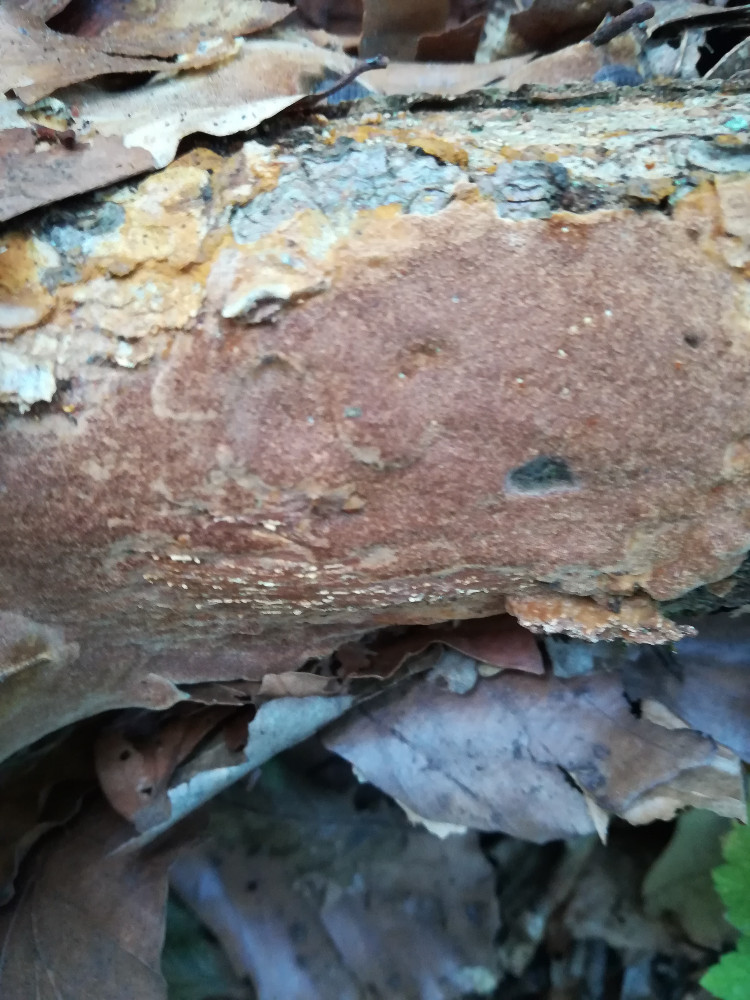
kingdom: Fungi
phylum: Basidiomycota
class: Agaricomycetes
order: Hymenochaetales
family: Hymenochaetaceae
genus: Fuscoporia
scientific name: Fuscoporia ferrea
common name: skorpe-ildporesvamp
